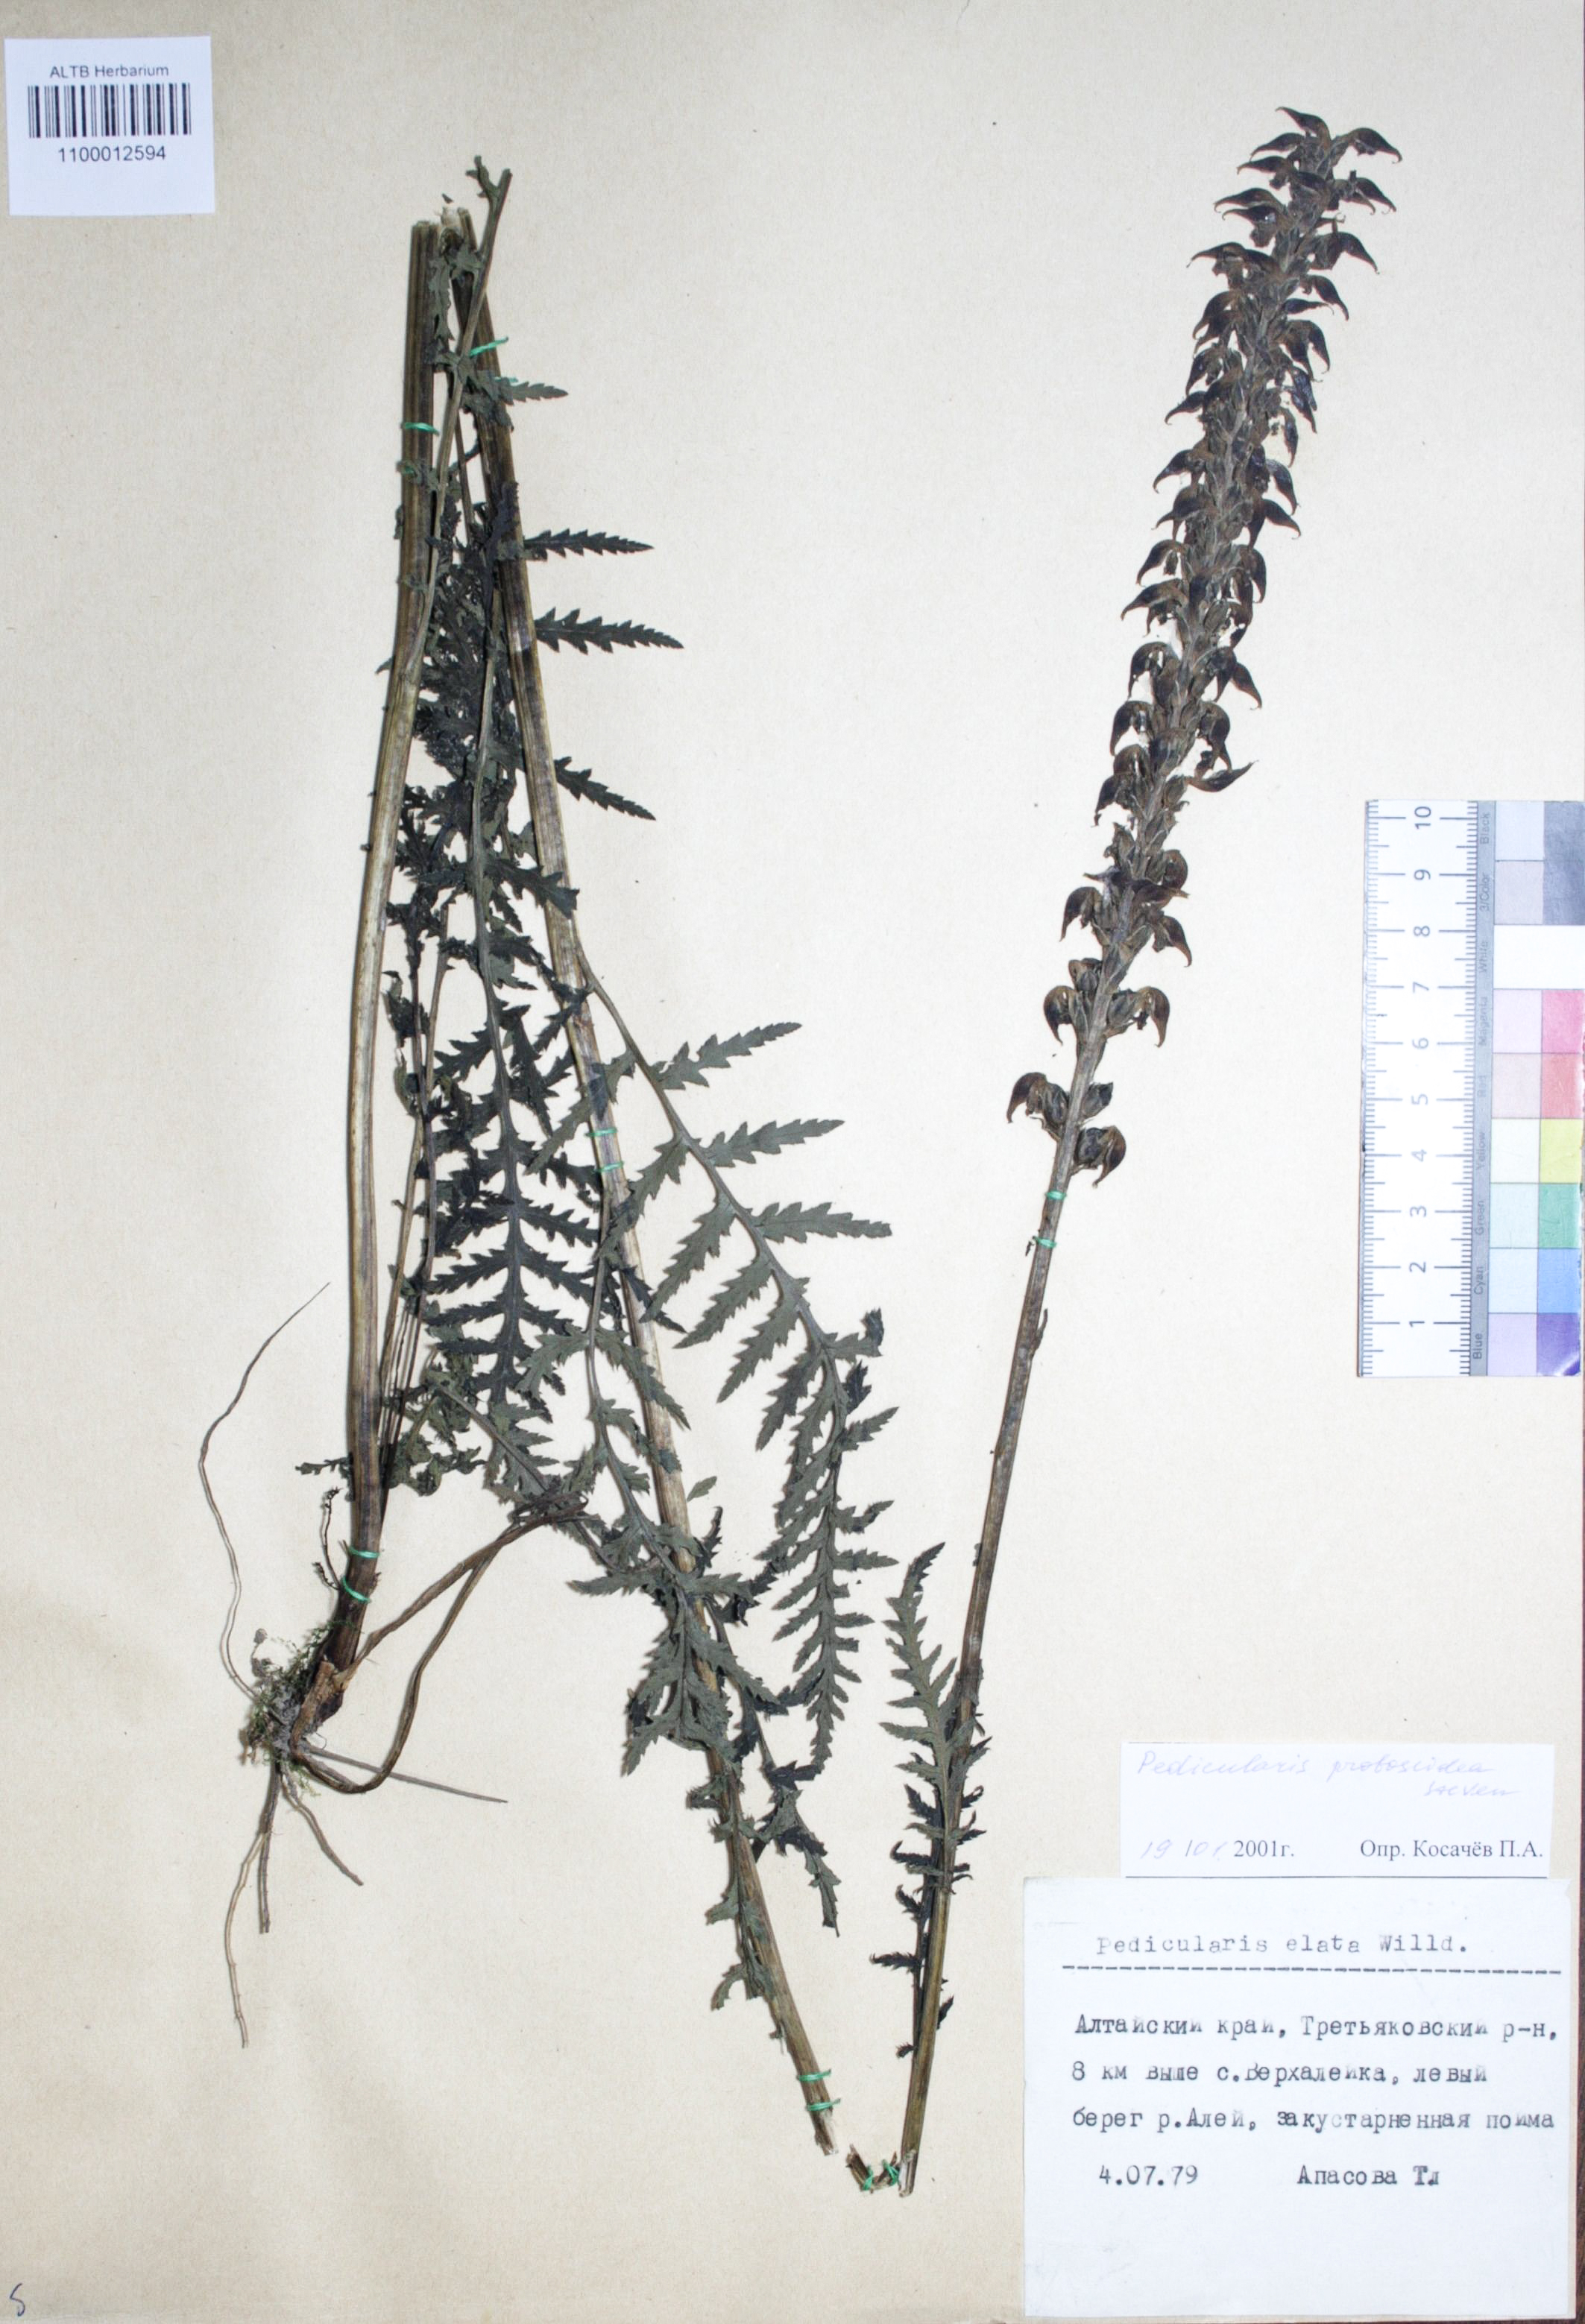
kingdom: Plantae
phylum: Tracheophyta
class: Magnoliopsida
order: Lamiales
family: Orobanchaceae
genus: Pedicularis
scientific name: Pedicularis elata
